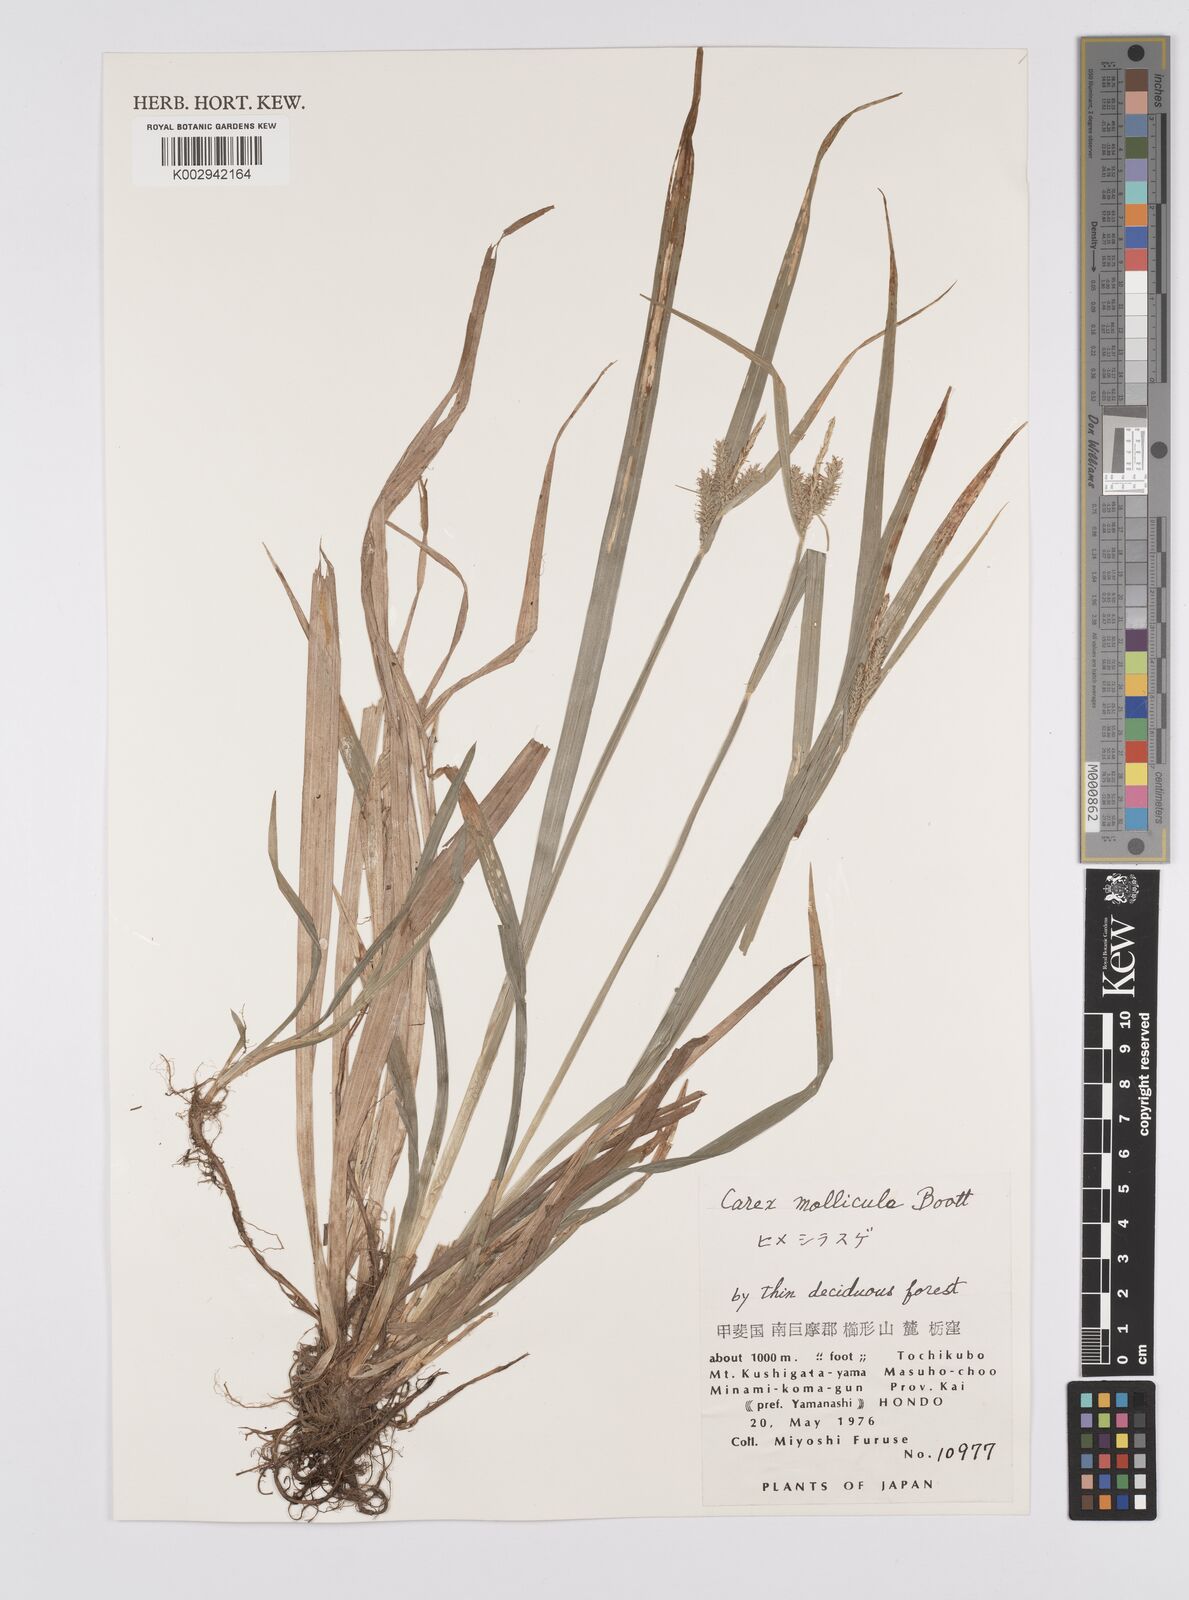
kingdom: Plantae
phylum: Tracheophyta
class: Liliopsida
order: Poales
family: Cyperaceae
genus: Carex
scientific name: Carex mollicula
